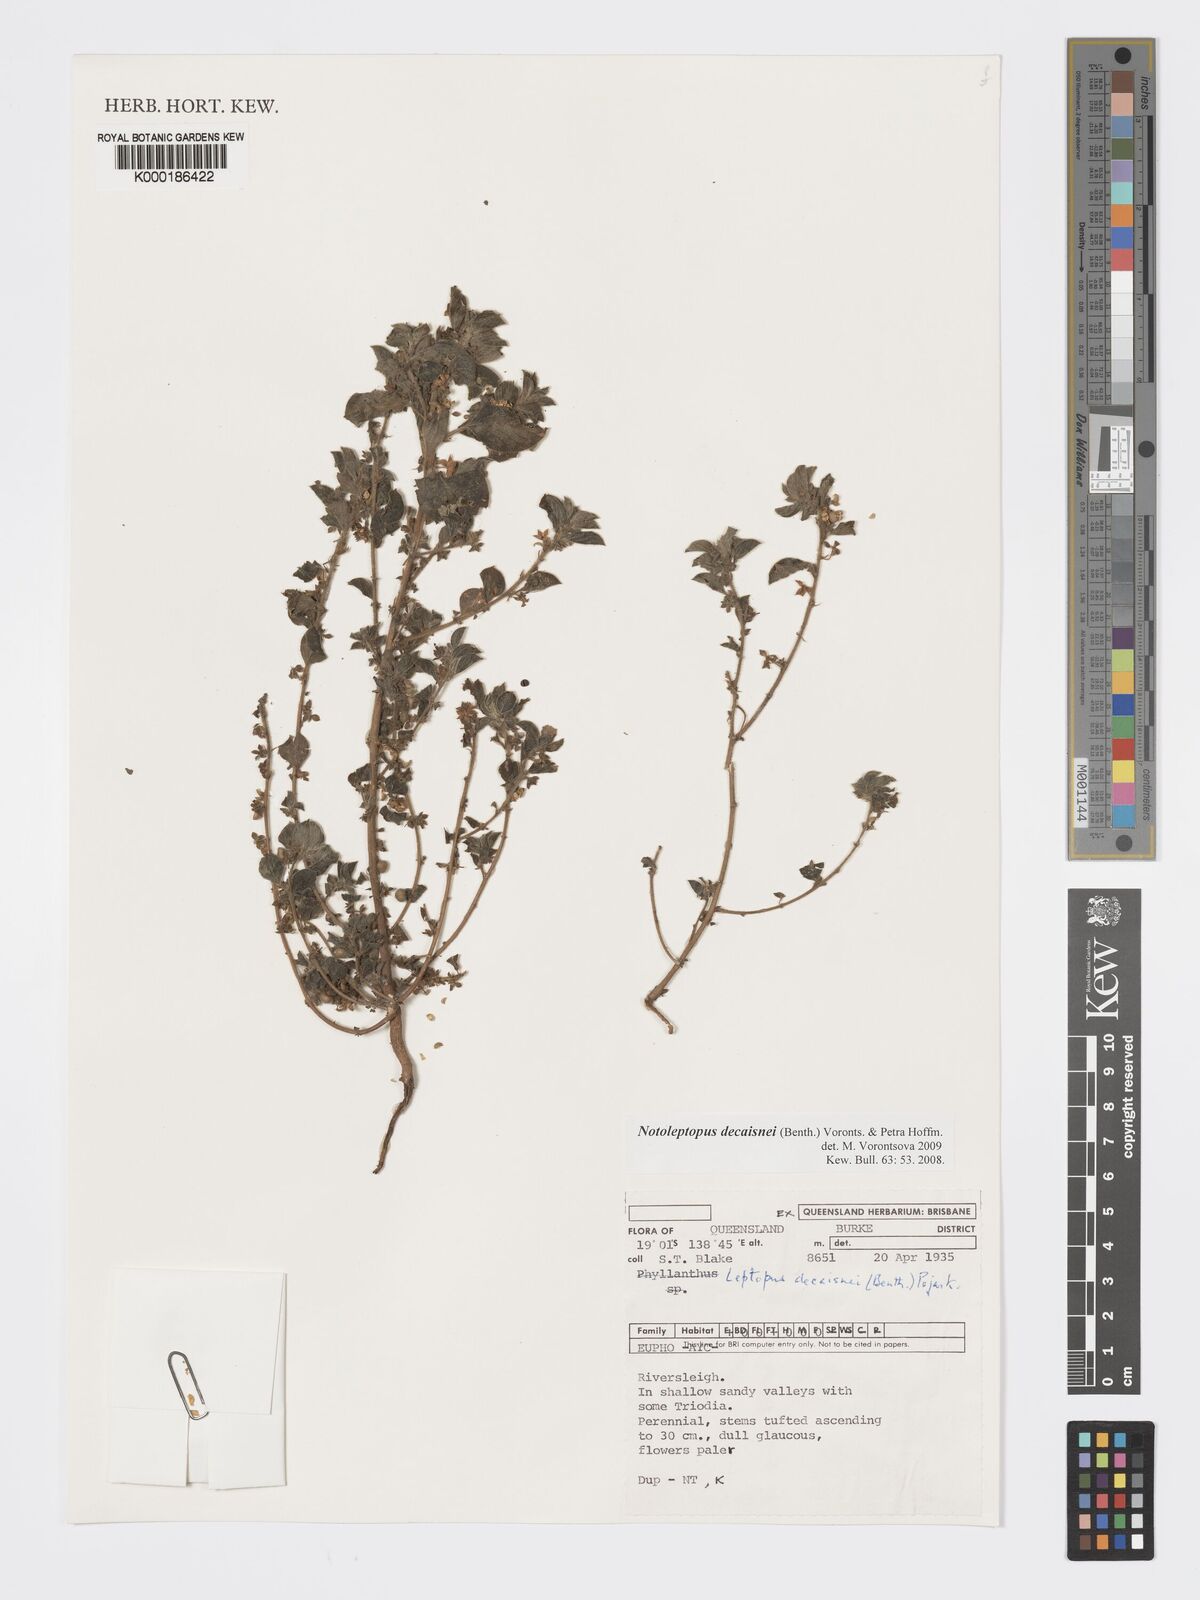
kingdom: Plantae
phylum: Tracheophyta
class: Magnoliopsida
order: Malpighiales
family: Phyllanthaceae
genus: Andrachne
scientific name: Andrachne
